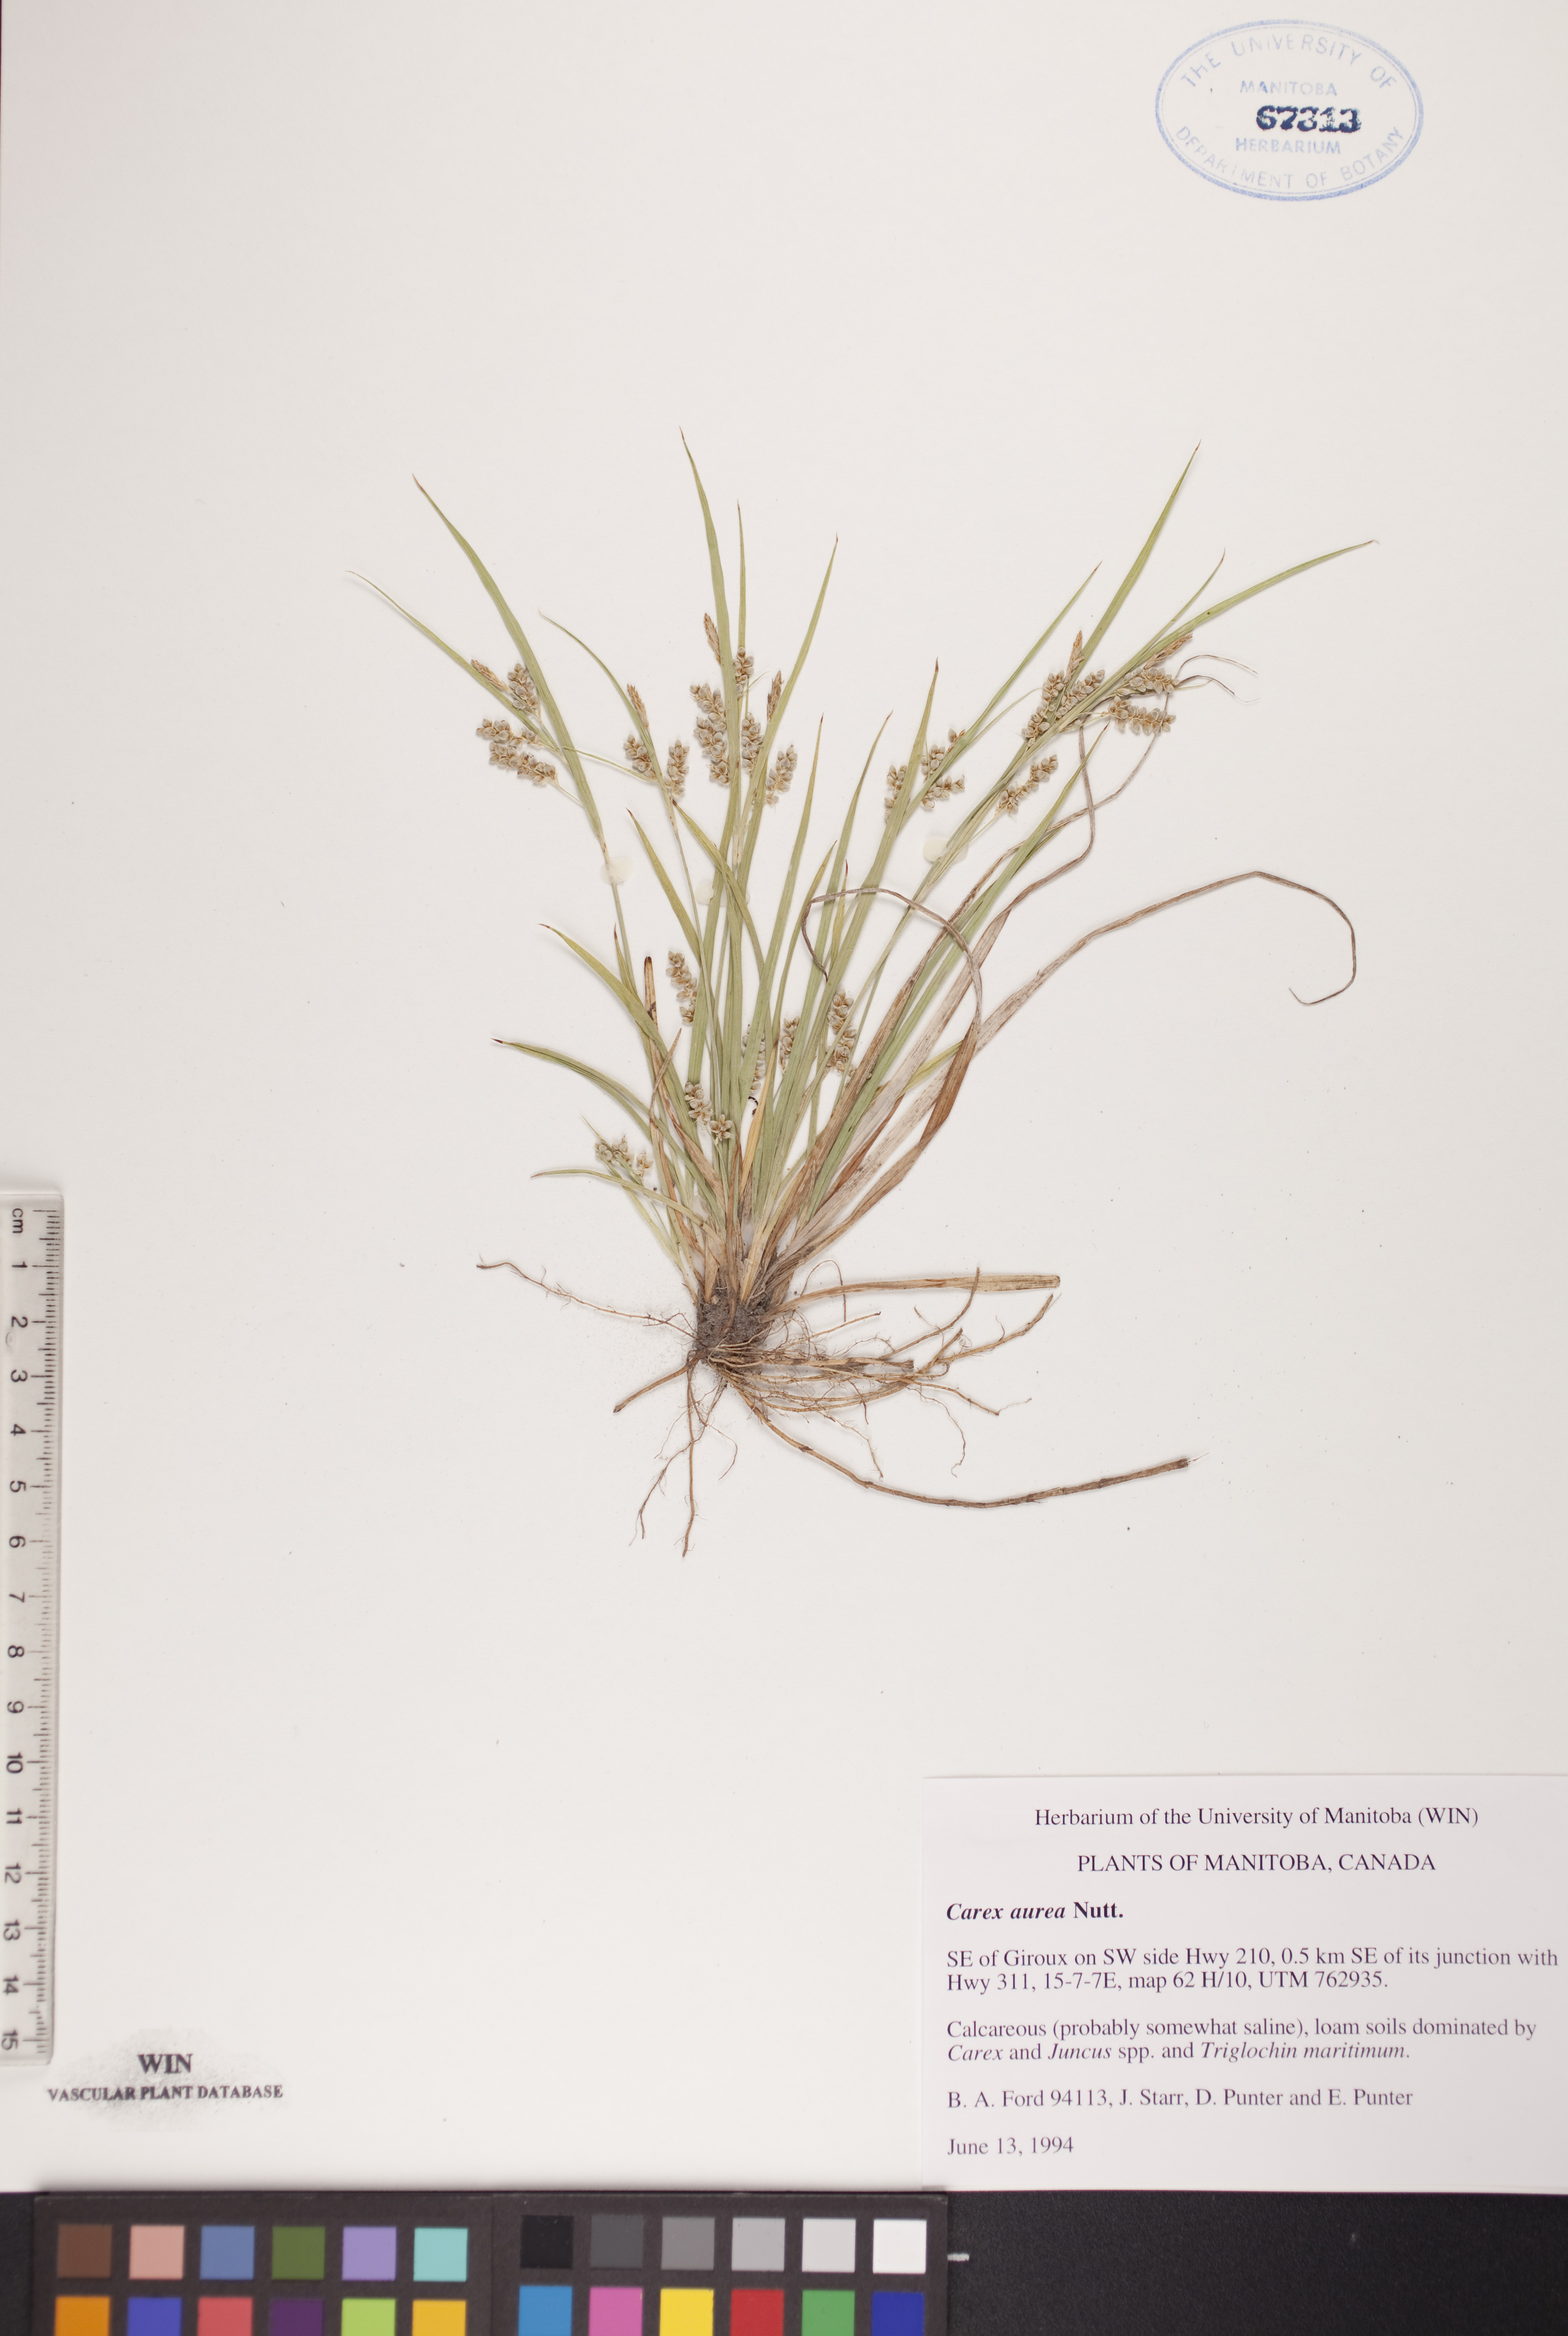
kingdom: Plantae
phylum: Tracheophyta
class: Liliopsida
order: Poales
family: Cyperaceae
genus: Carex
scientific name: Carex aurea
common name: Golden sedge
